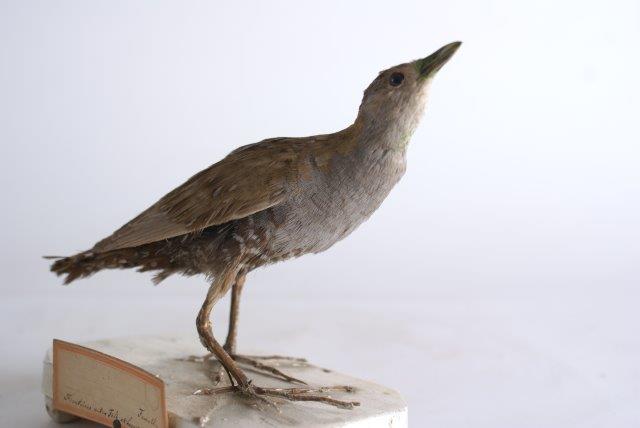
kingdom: Animalia
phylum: Chordata
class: Aves
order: Gruiformes
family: Rallidae
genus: Porzana
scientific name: Porzana pusilla
